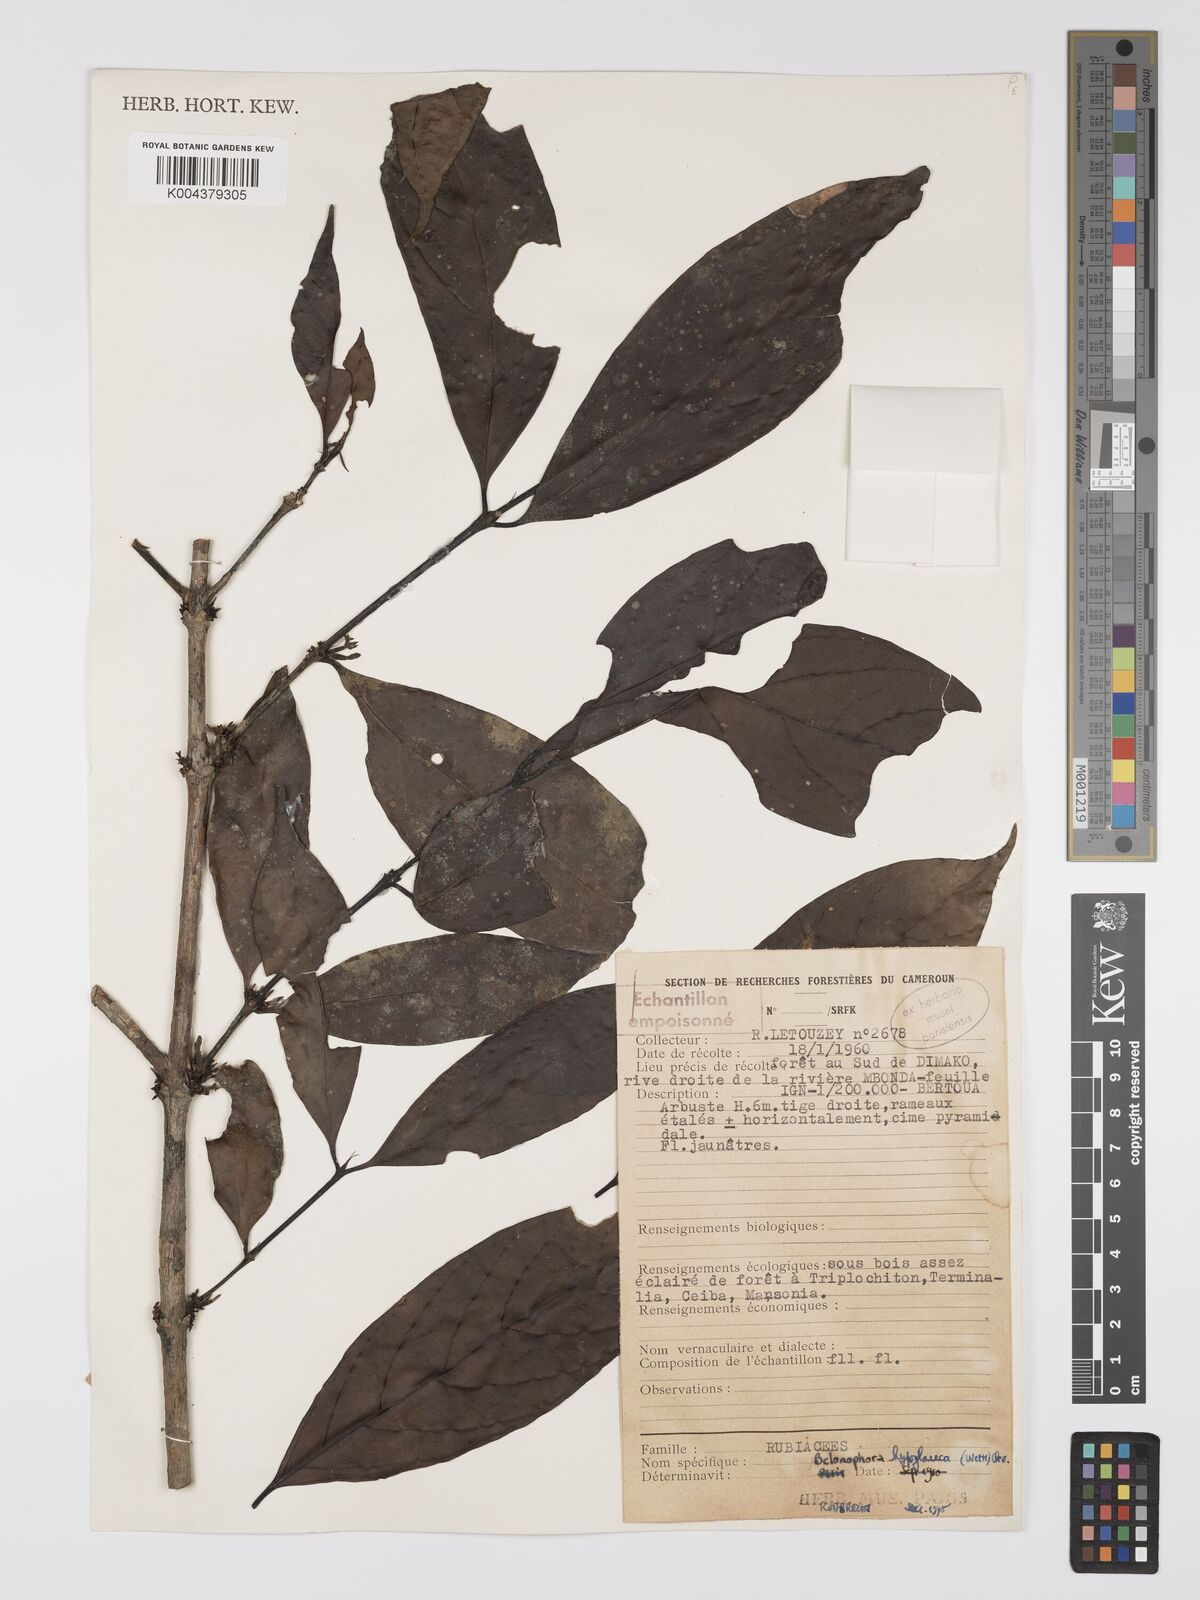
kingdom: Plantae
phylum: Tracheophyta
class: Magnoliopsida
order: Gentianales
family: Rubiaceae
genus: Belonophora
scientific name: Belonophora coffeoides
